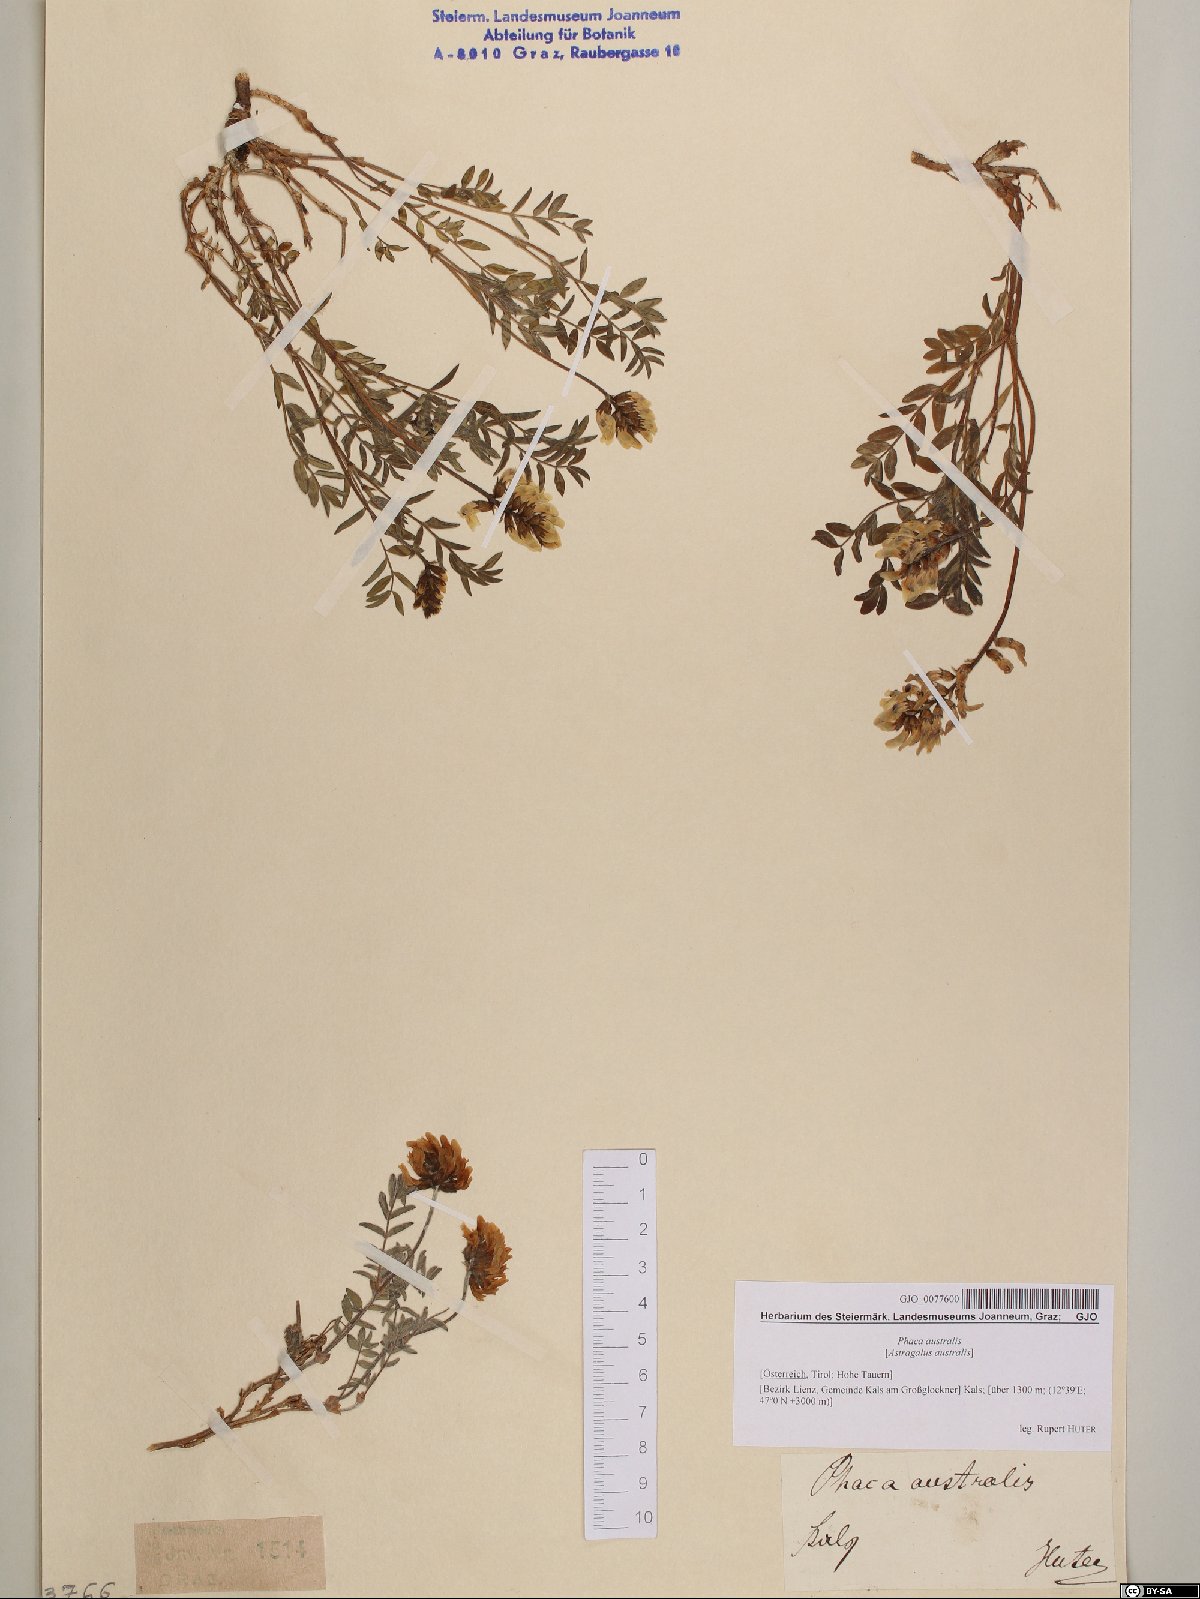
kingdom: Plantae
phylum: Tracheophyta
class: Magnoliopsida
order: Fabales
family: Fabaceae
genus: Astragalus
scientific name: Astragalus australis
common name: Indian milk-vetch
